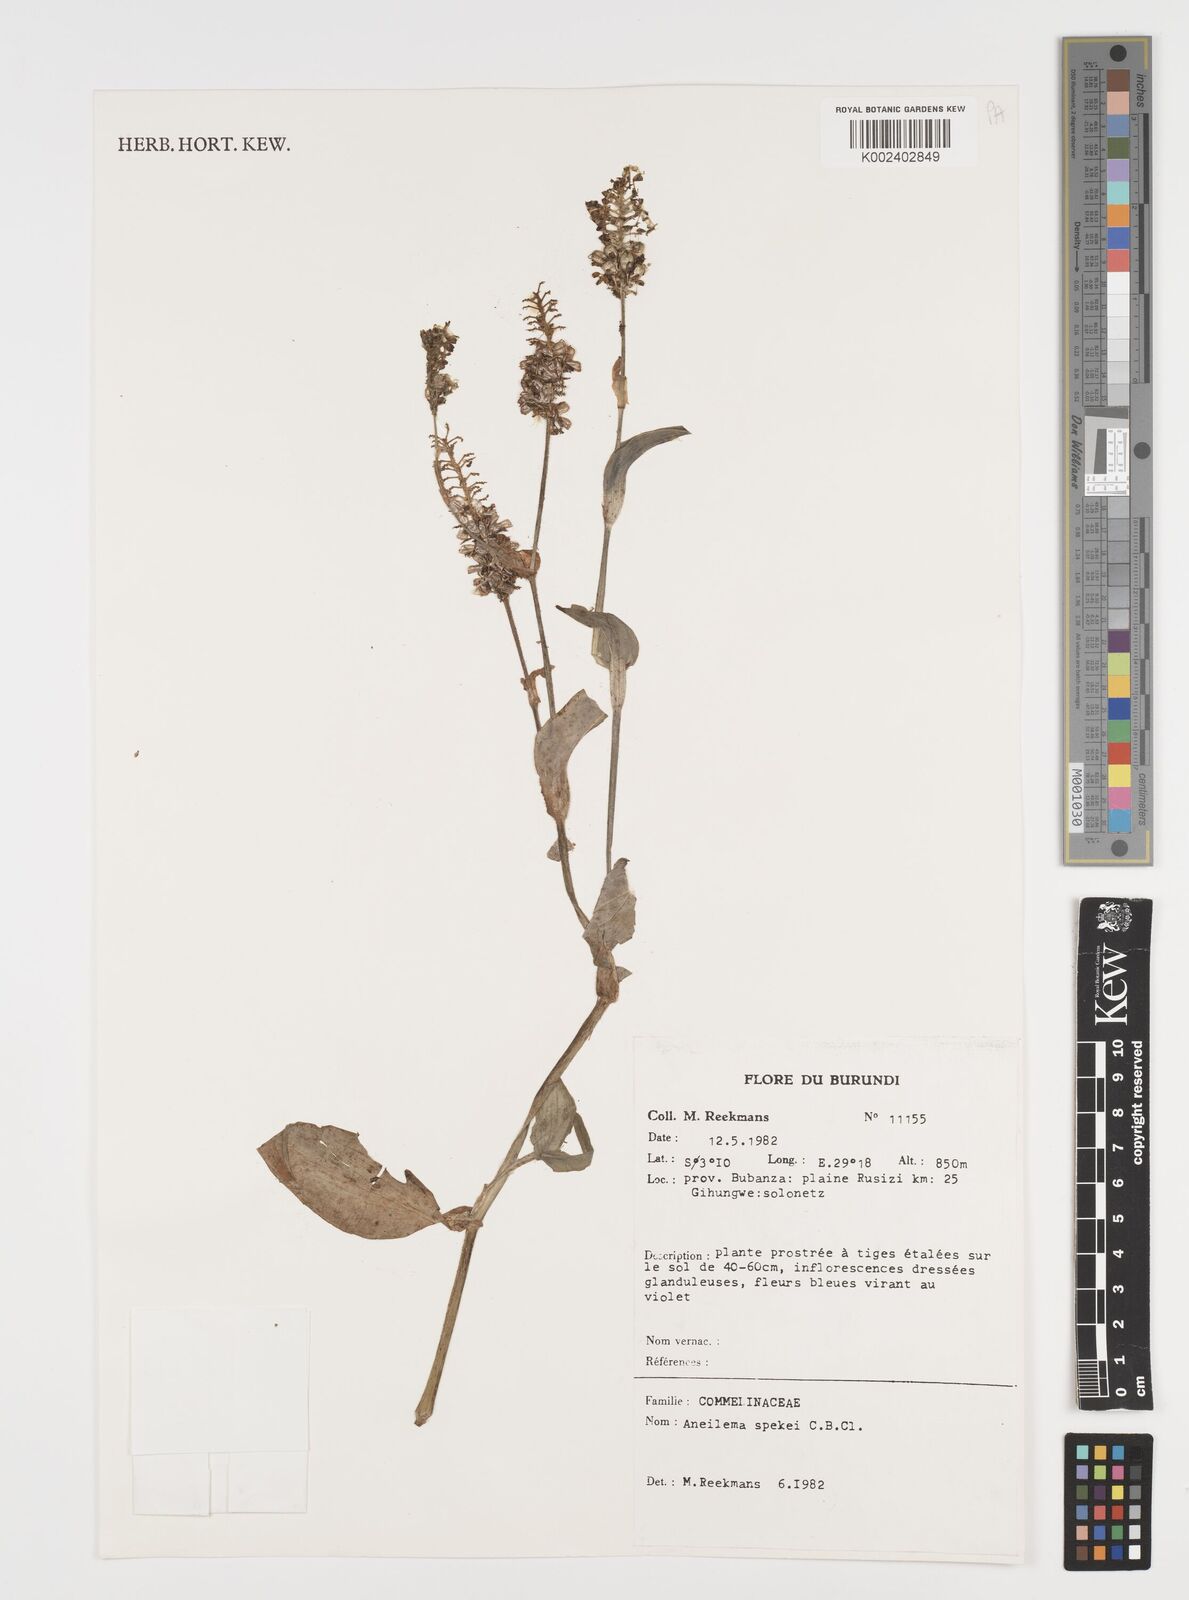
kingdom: Plantae
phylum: Tracheophyta
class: Liliopsida
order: Commelinales
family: Commelinaceae
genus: Aneilema
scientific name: Aneilema spekei
